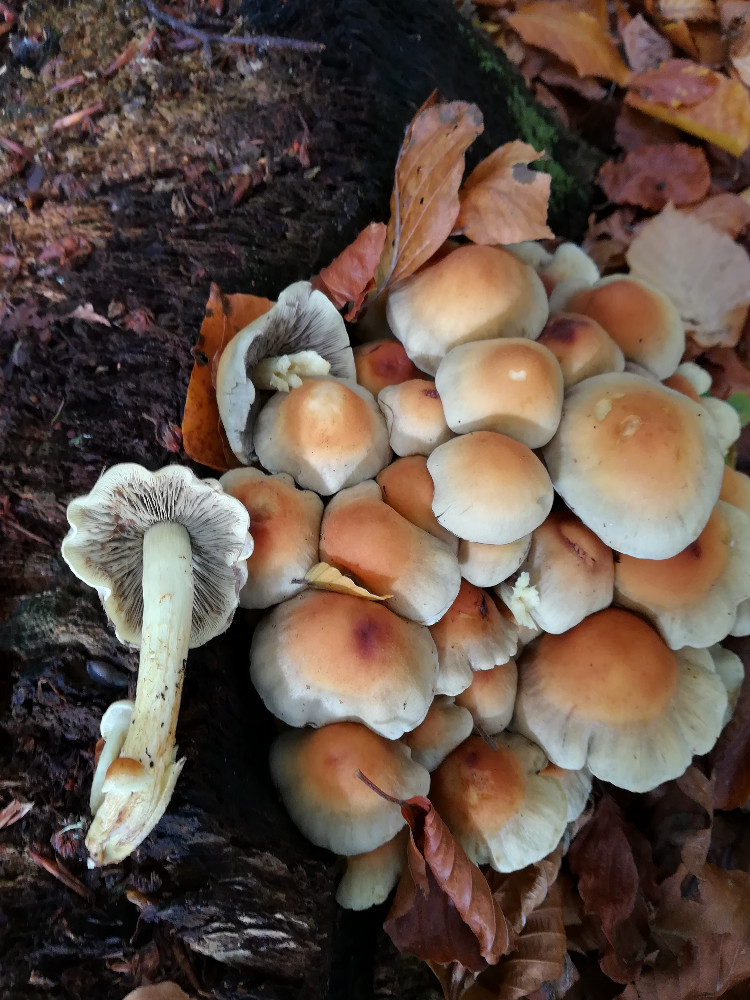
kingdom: Fungi
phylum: Basidiomycota
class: Agaricomycetes
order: Agaricales
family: Strophariaceae
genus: Hypholoma
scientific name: Hypholoma fasciculare
